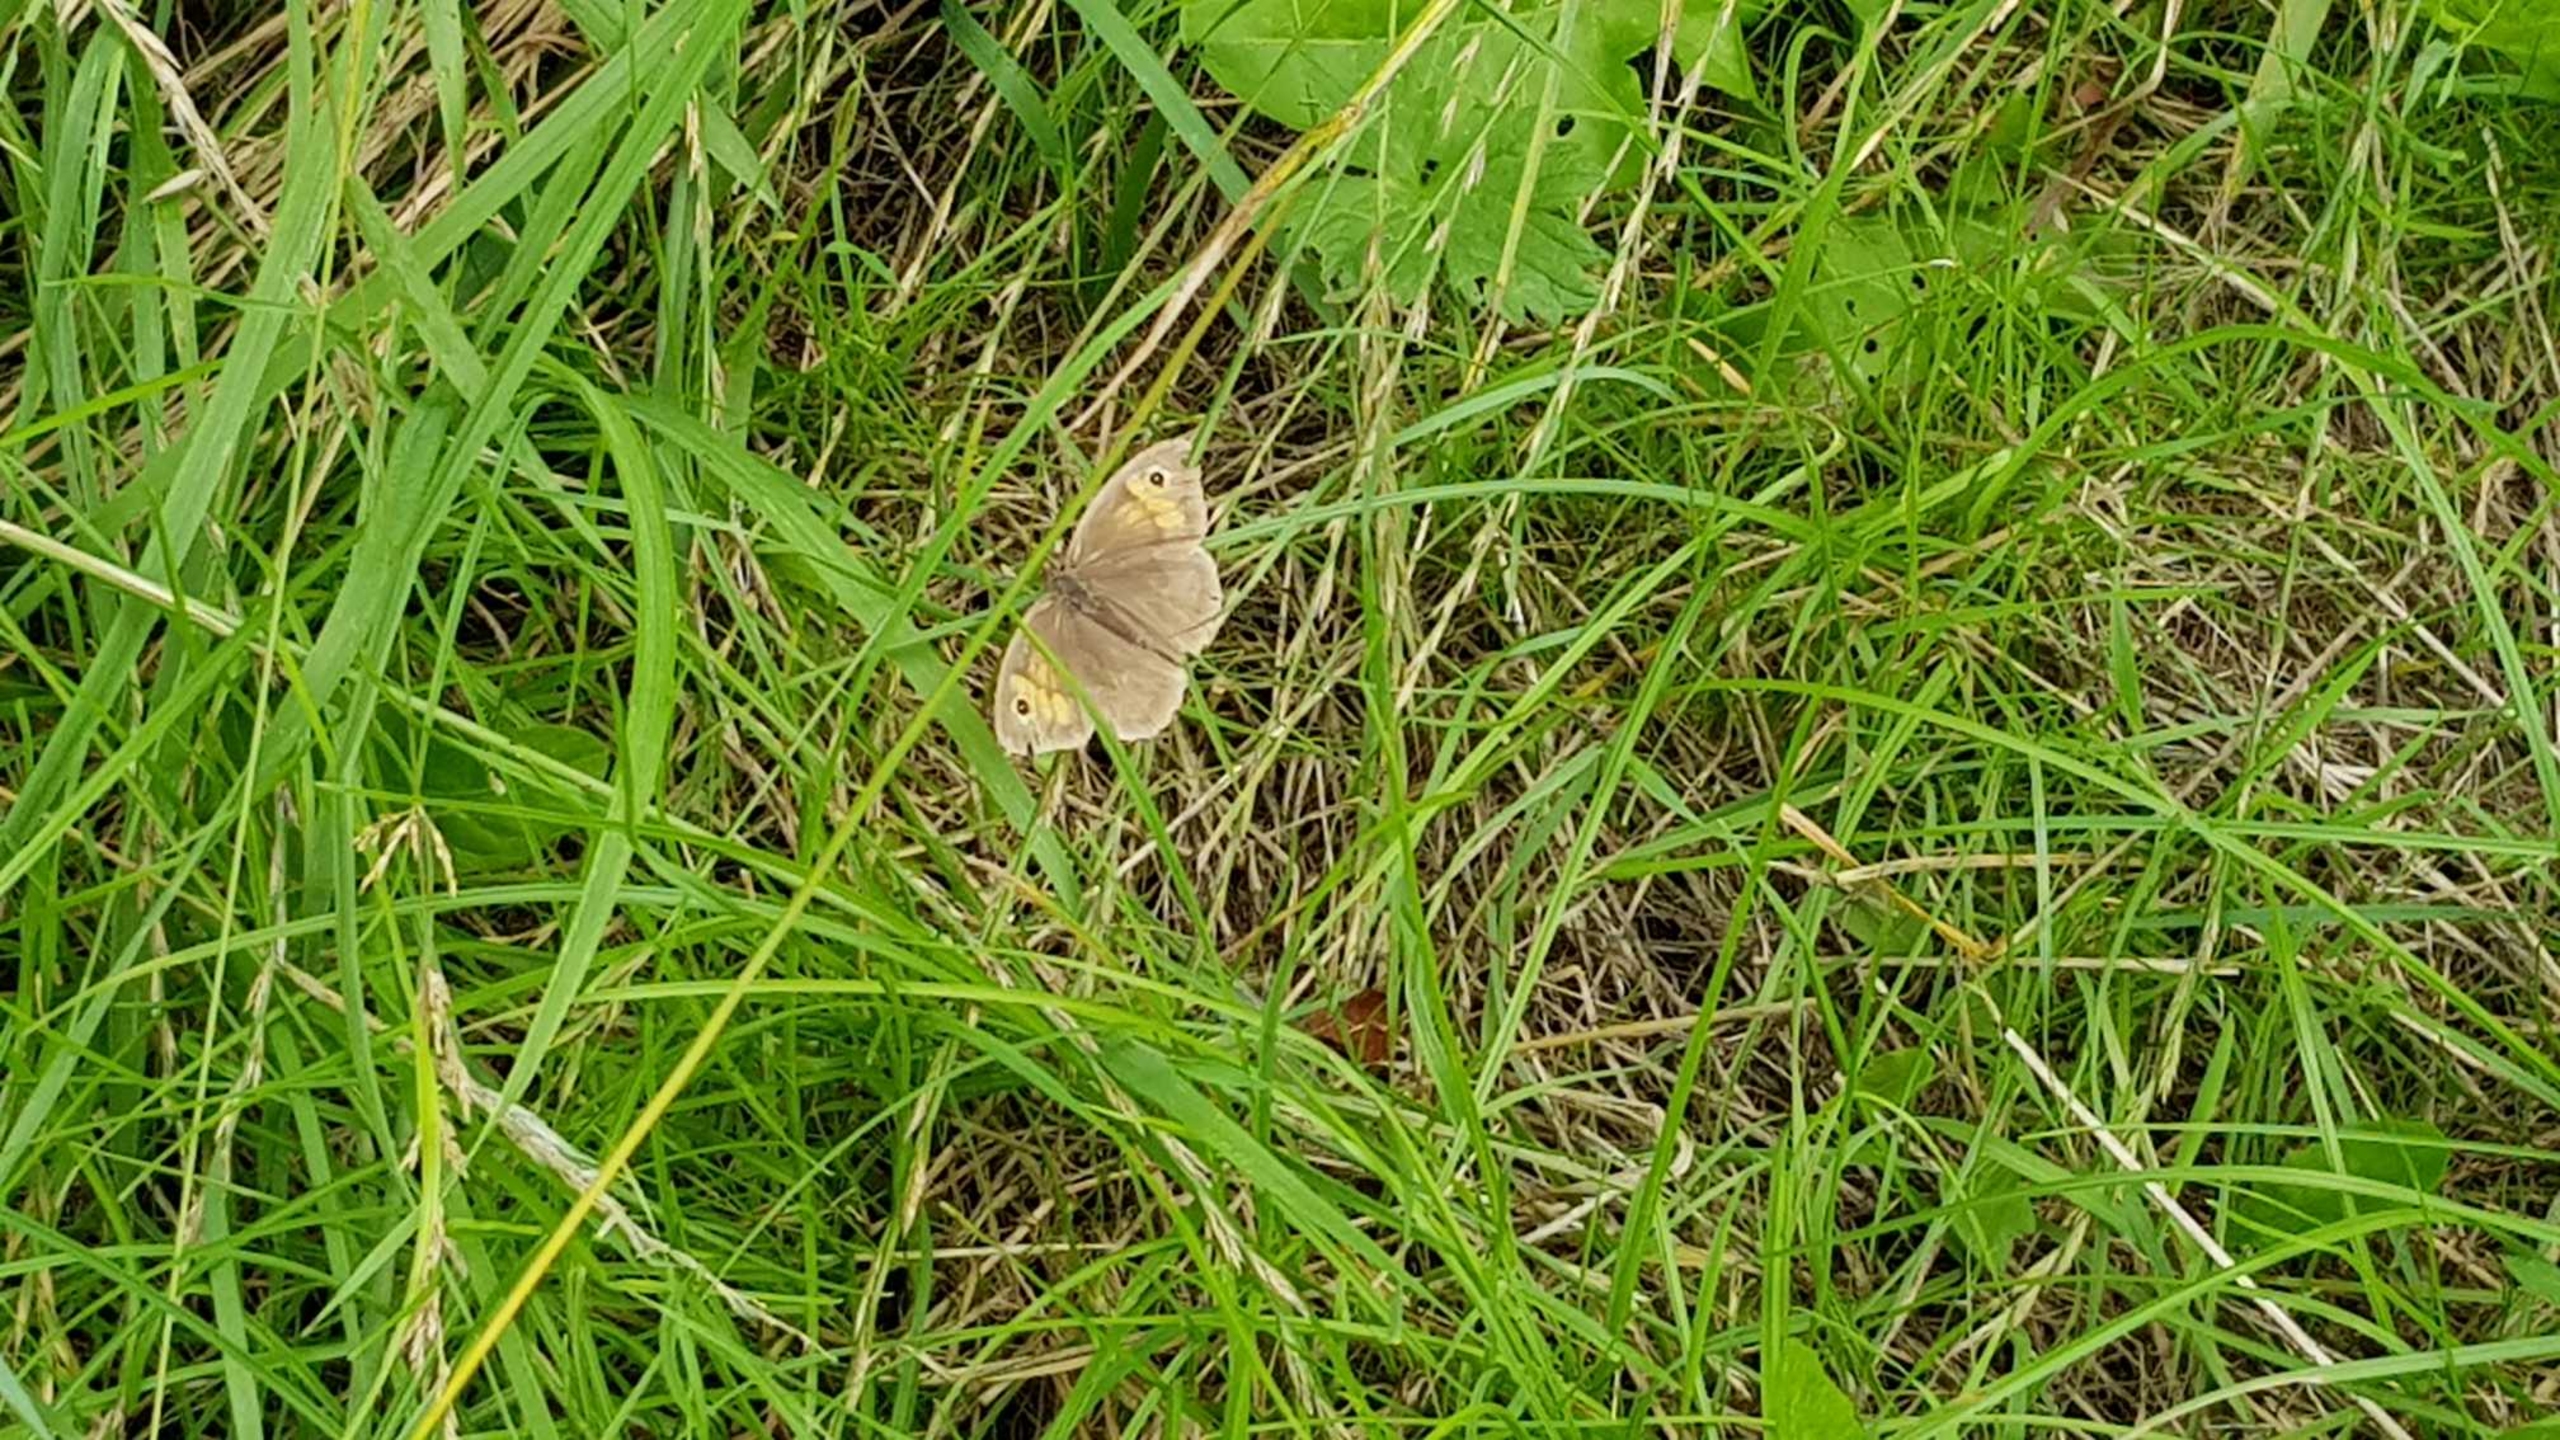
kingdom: Animalia
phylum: Arthropoda
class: Insecta
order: Lepidoptera
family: Nymphalidae
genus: Maniola
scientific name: Maniola jurtina
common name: Græsrandøje
